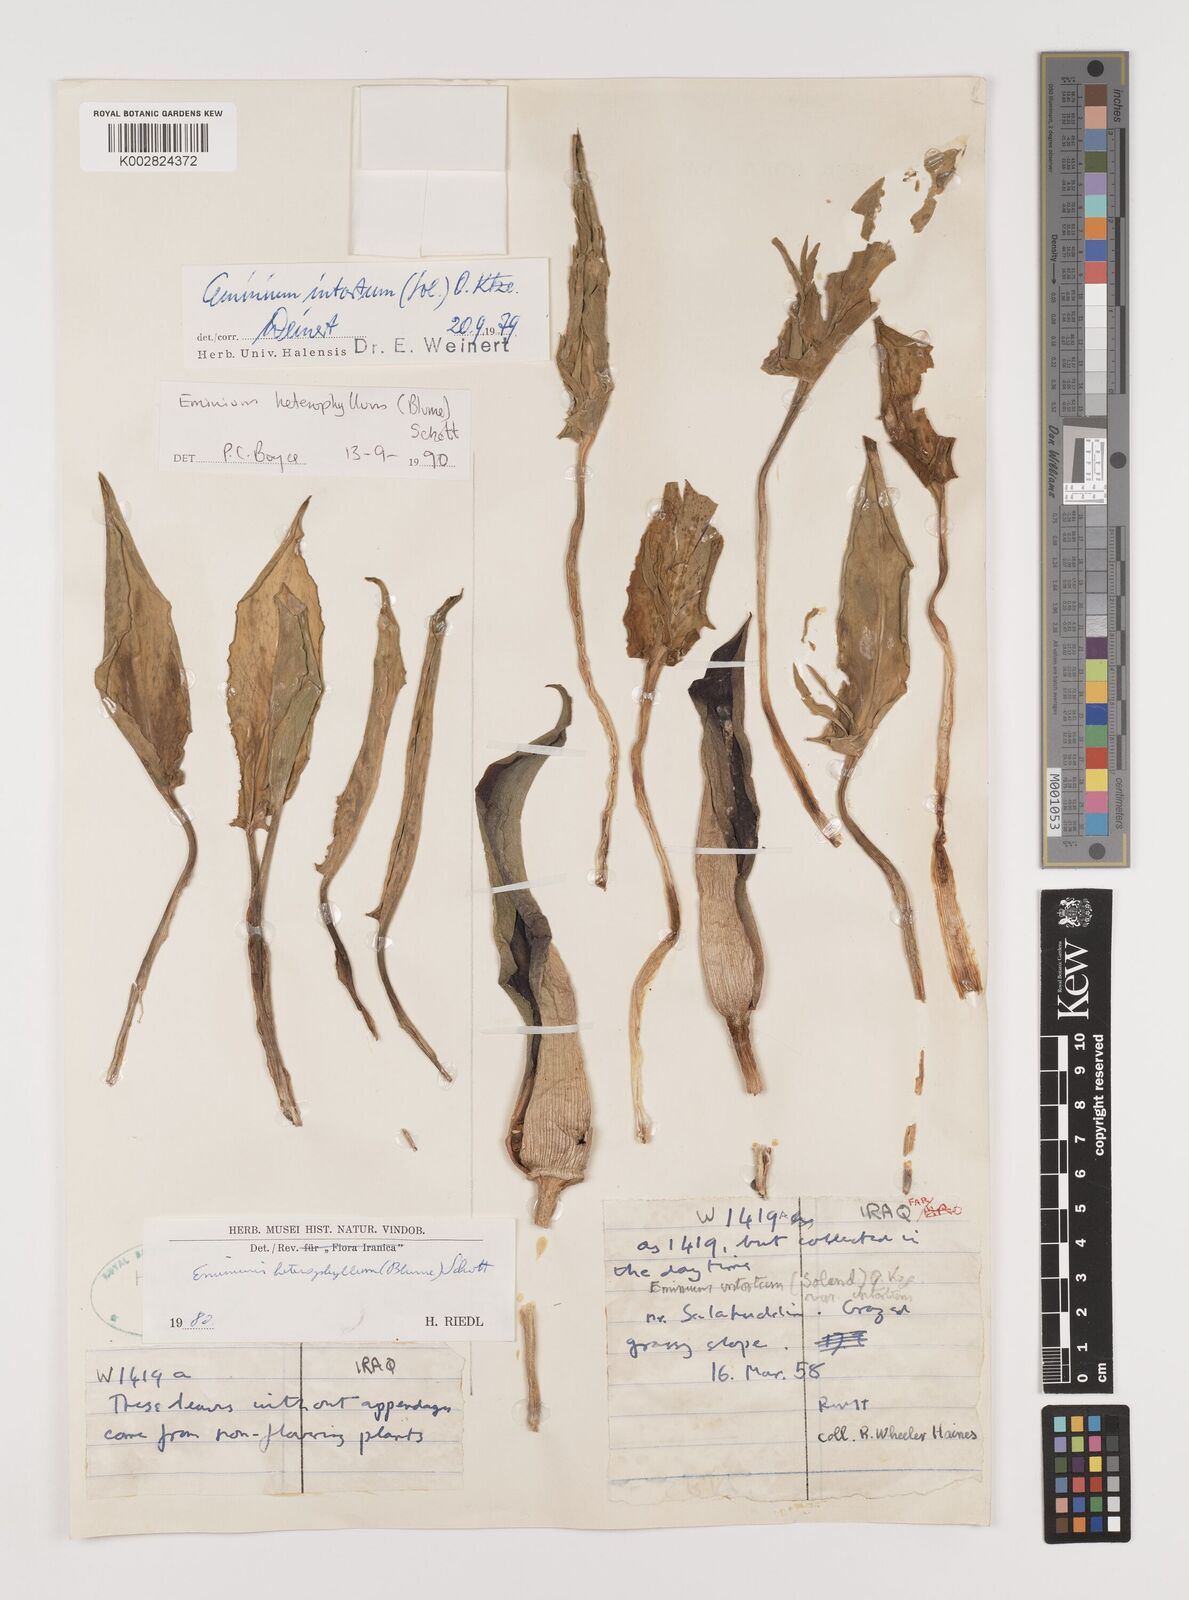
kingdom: Plantae
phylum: Tracheophyta
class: Liliopsida
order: Alismatales
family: Araceae
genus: Eminium
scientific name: Eminium rauwolffii
